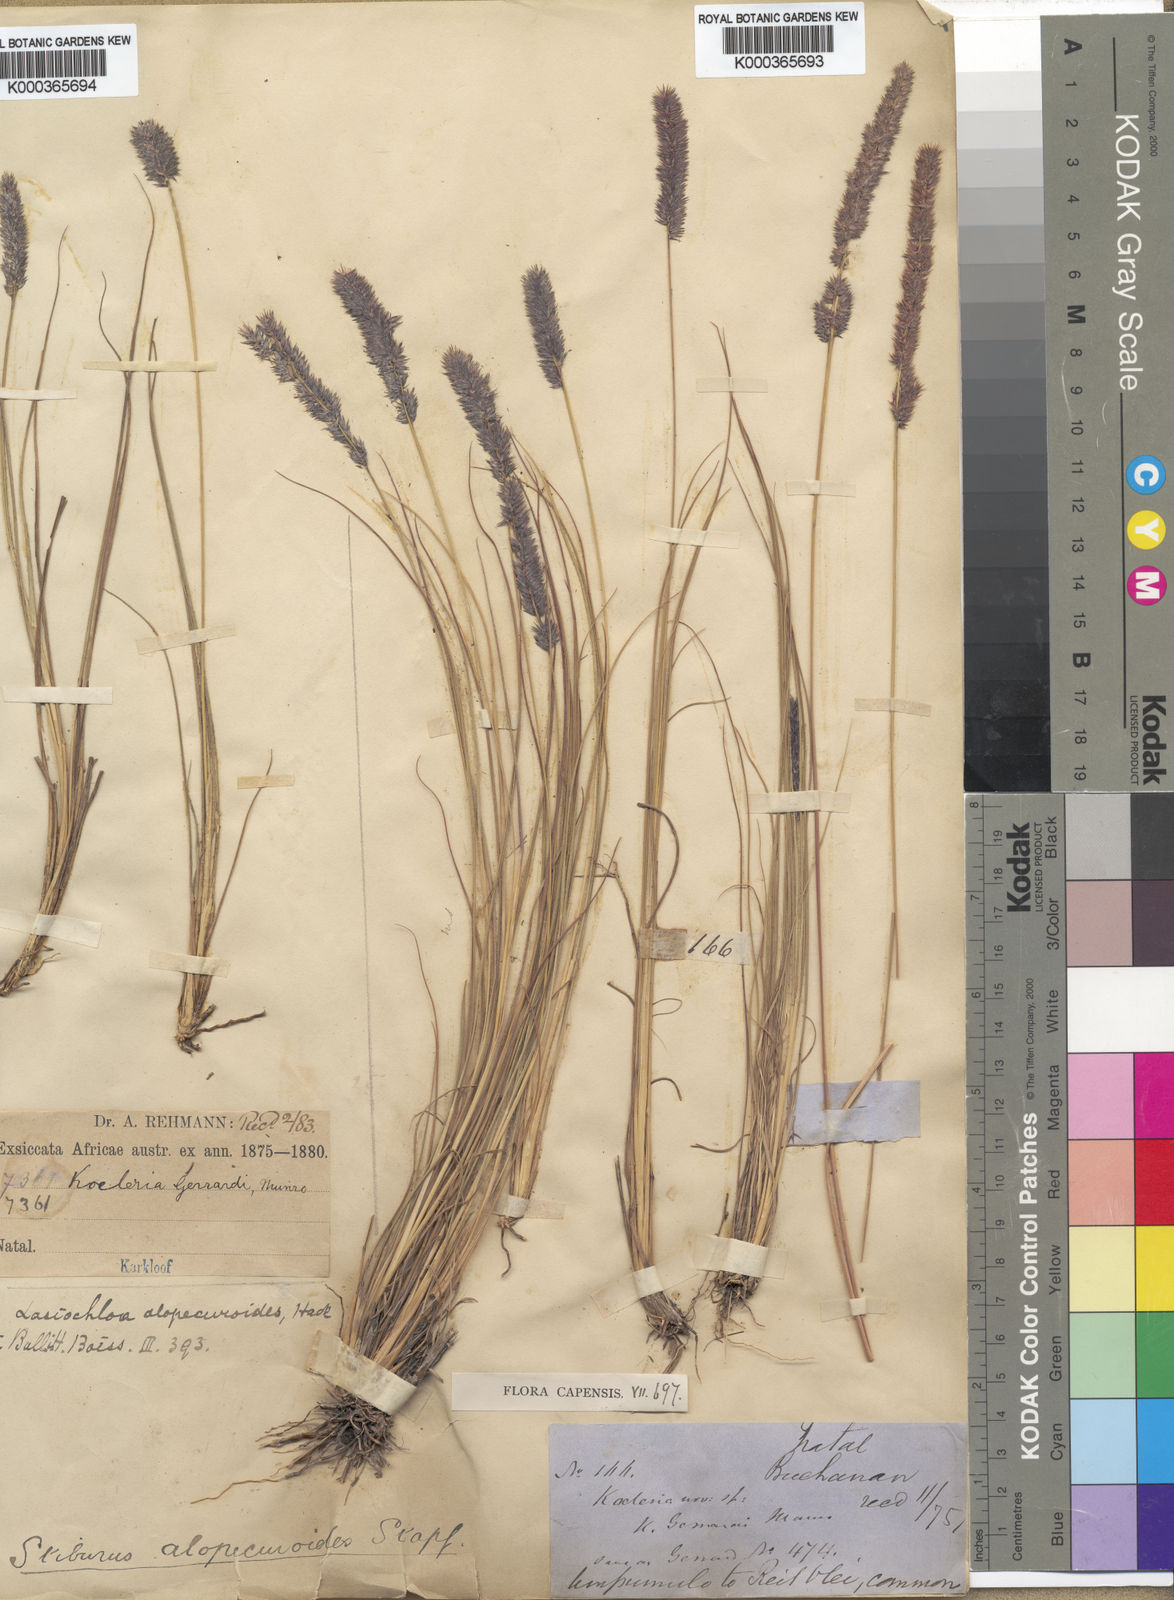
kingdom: Plantae
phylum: Tracheophyta
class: Liliopsida
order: Poales
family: Poaceae
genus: Eragrostis
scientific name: Eragrostis alopecuroides
